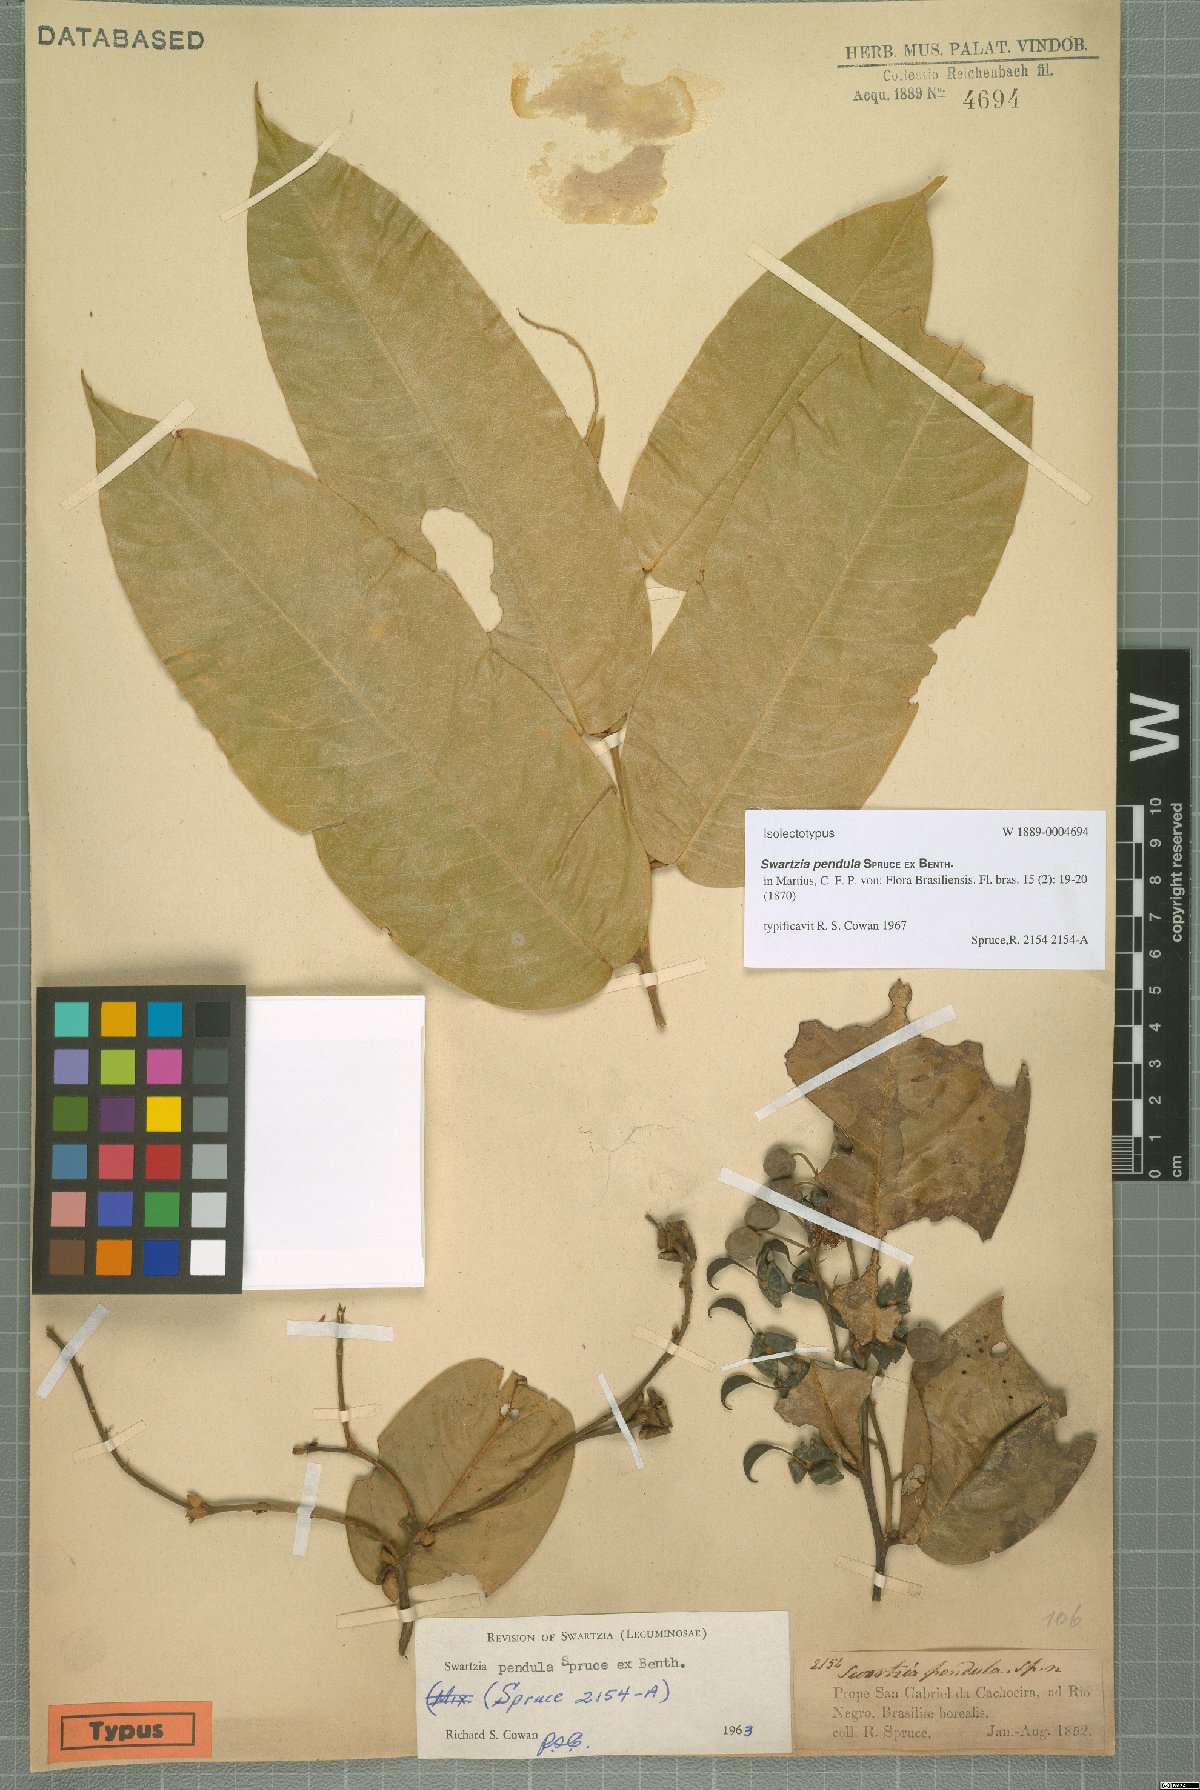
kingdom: Plantae
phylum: Tracheophyta
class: Magnoliopsida
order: Fabales
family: Fabaceae
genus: Swartzia
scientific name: Swartzia pendula
